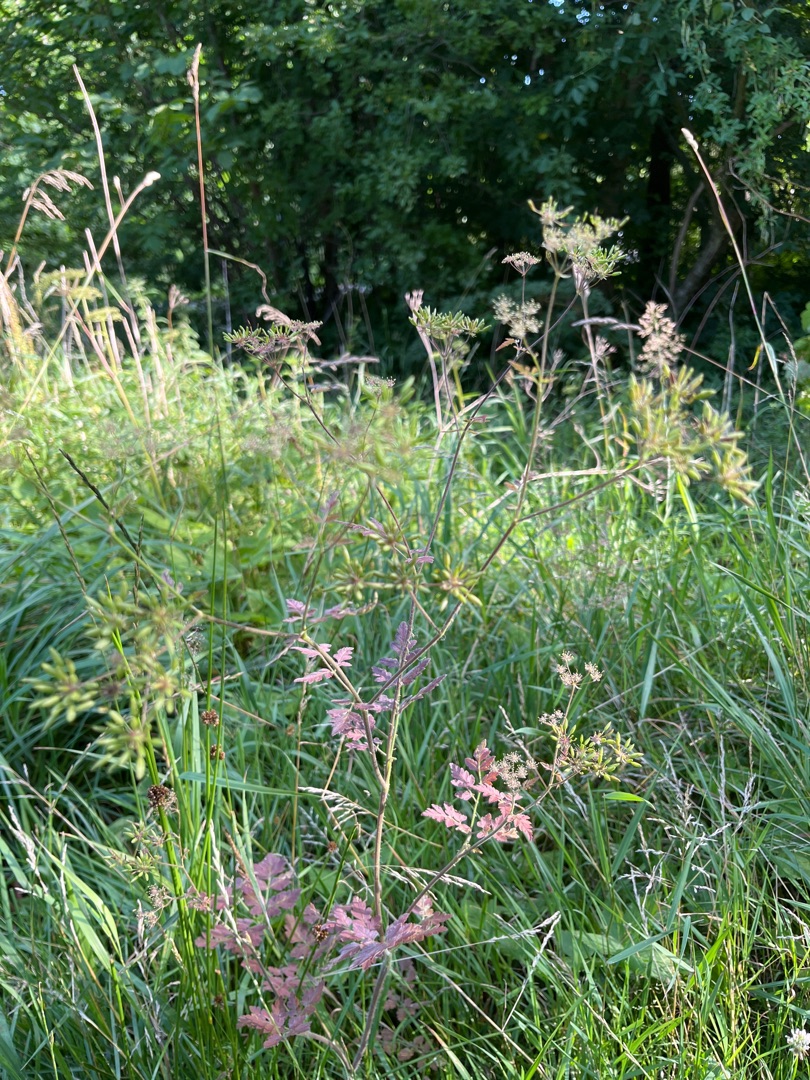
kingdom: Plantae
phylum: Tracheophyta
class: Magnoliopsida
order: Apiales
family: Apiaceae
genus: Chaerophyllum
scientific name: Chaerophyllum temulum
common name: Almindelig hulsvøb
